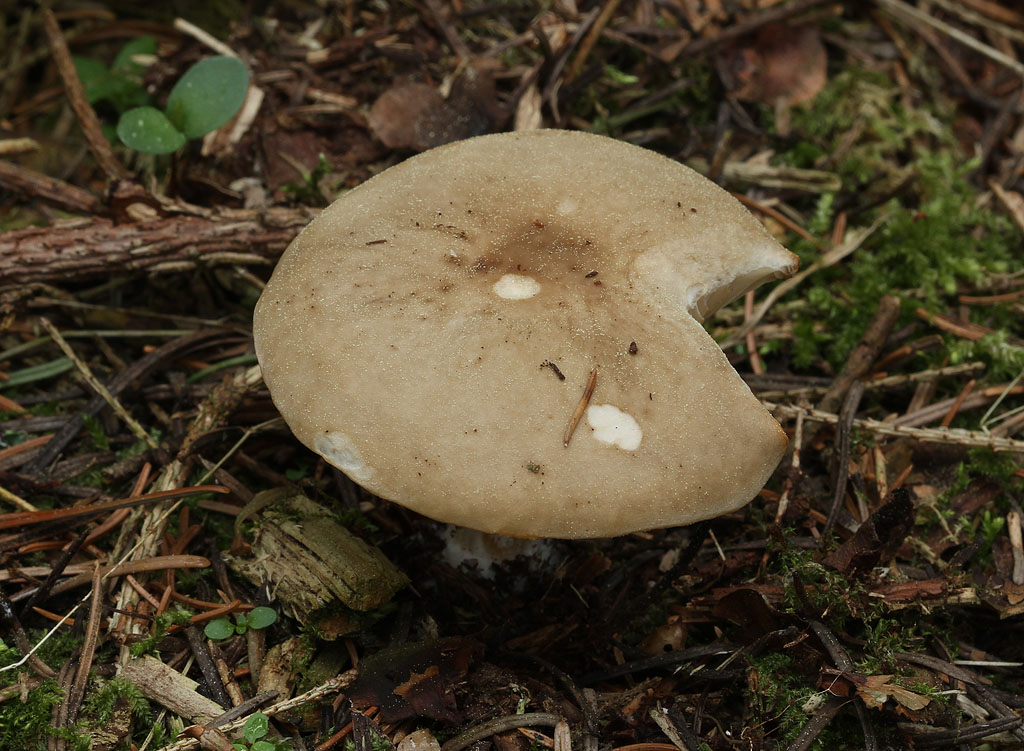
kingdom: Fungi
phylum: Basidiomycota
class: Agaricomycetes
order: Agaricales
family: Tricholomataceae
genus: Melanoleuca
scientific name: Melanoleuca cognata
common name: gyldengrå munkehat
